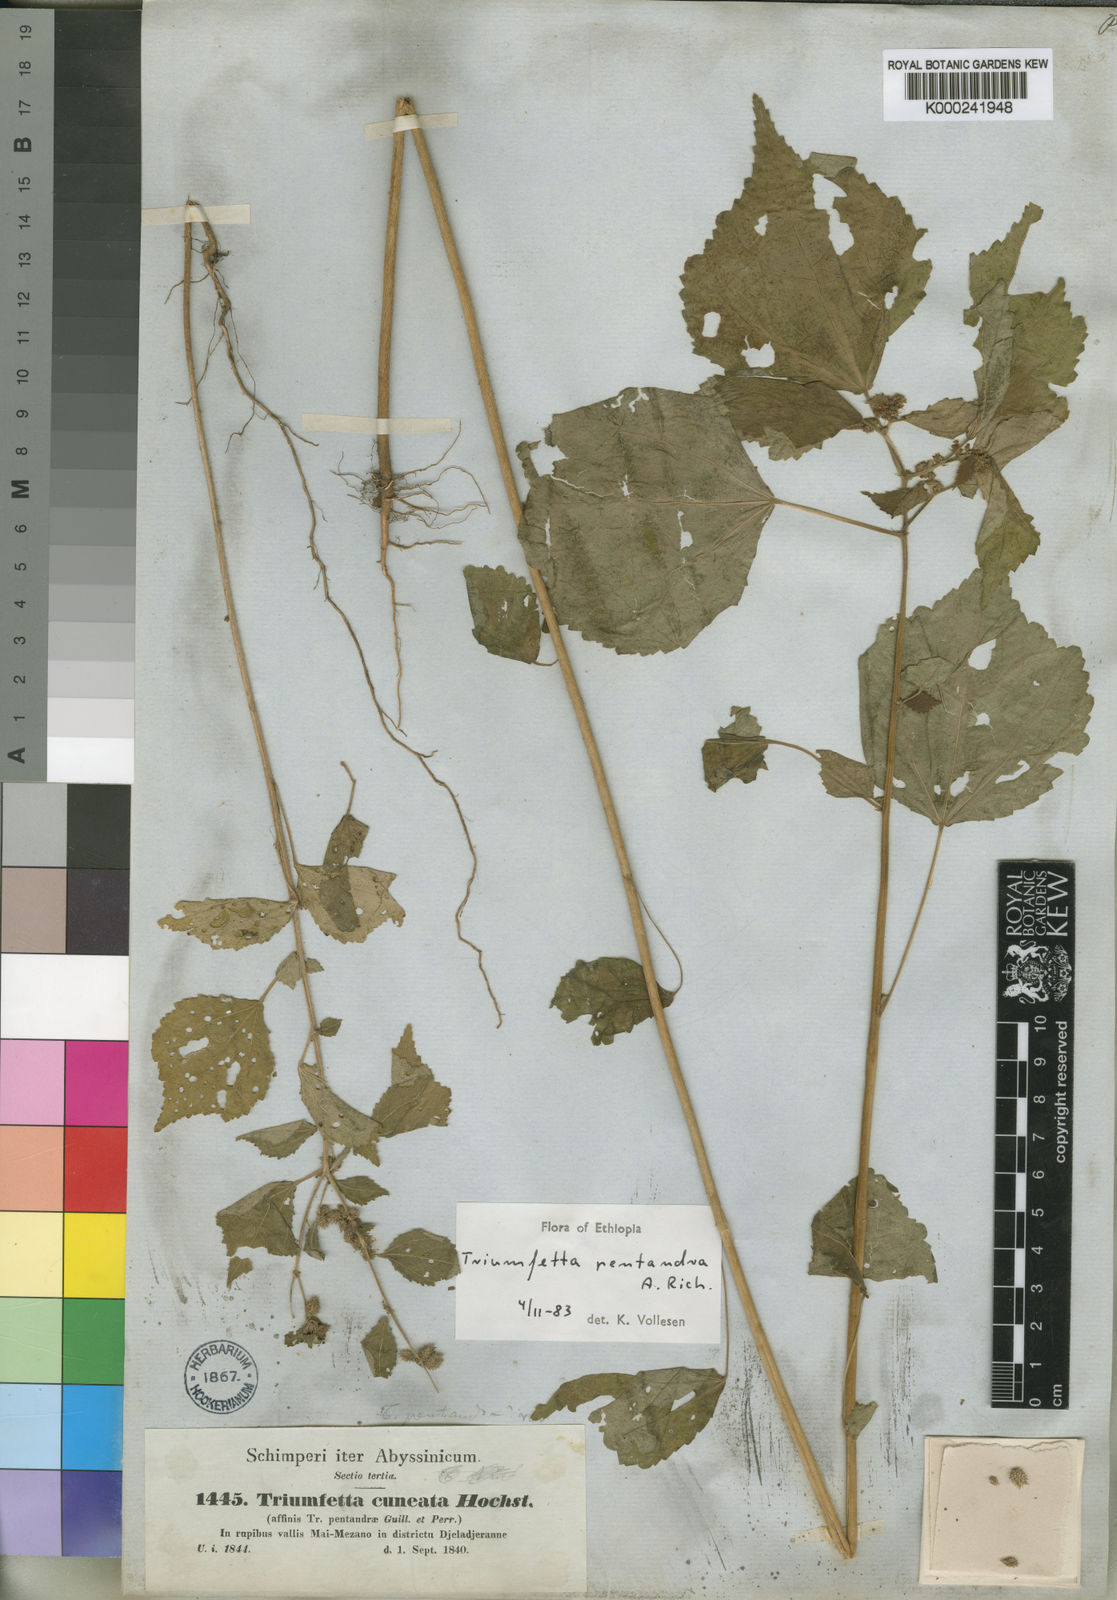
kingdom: Plantae
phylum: Tracheophyta
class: Magnoliopsida
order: Malvales
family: Malvaceae
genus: Triumfetta
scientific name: Triumfetta pentandra
